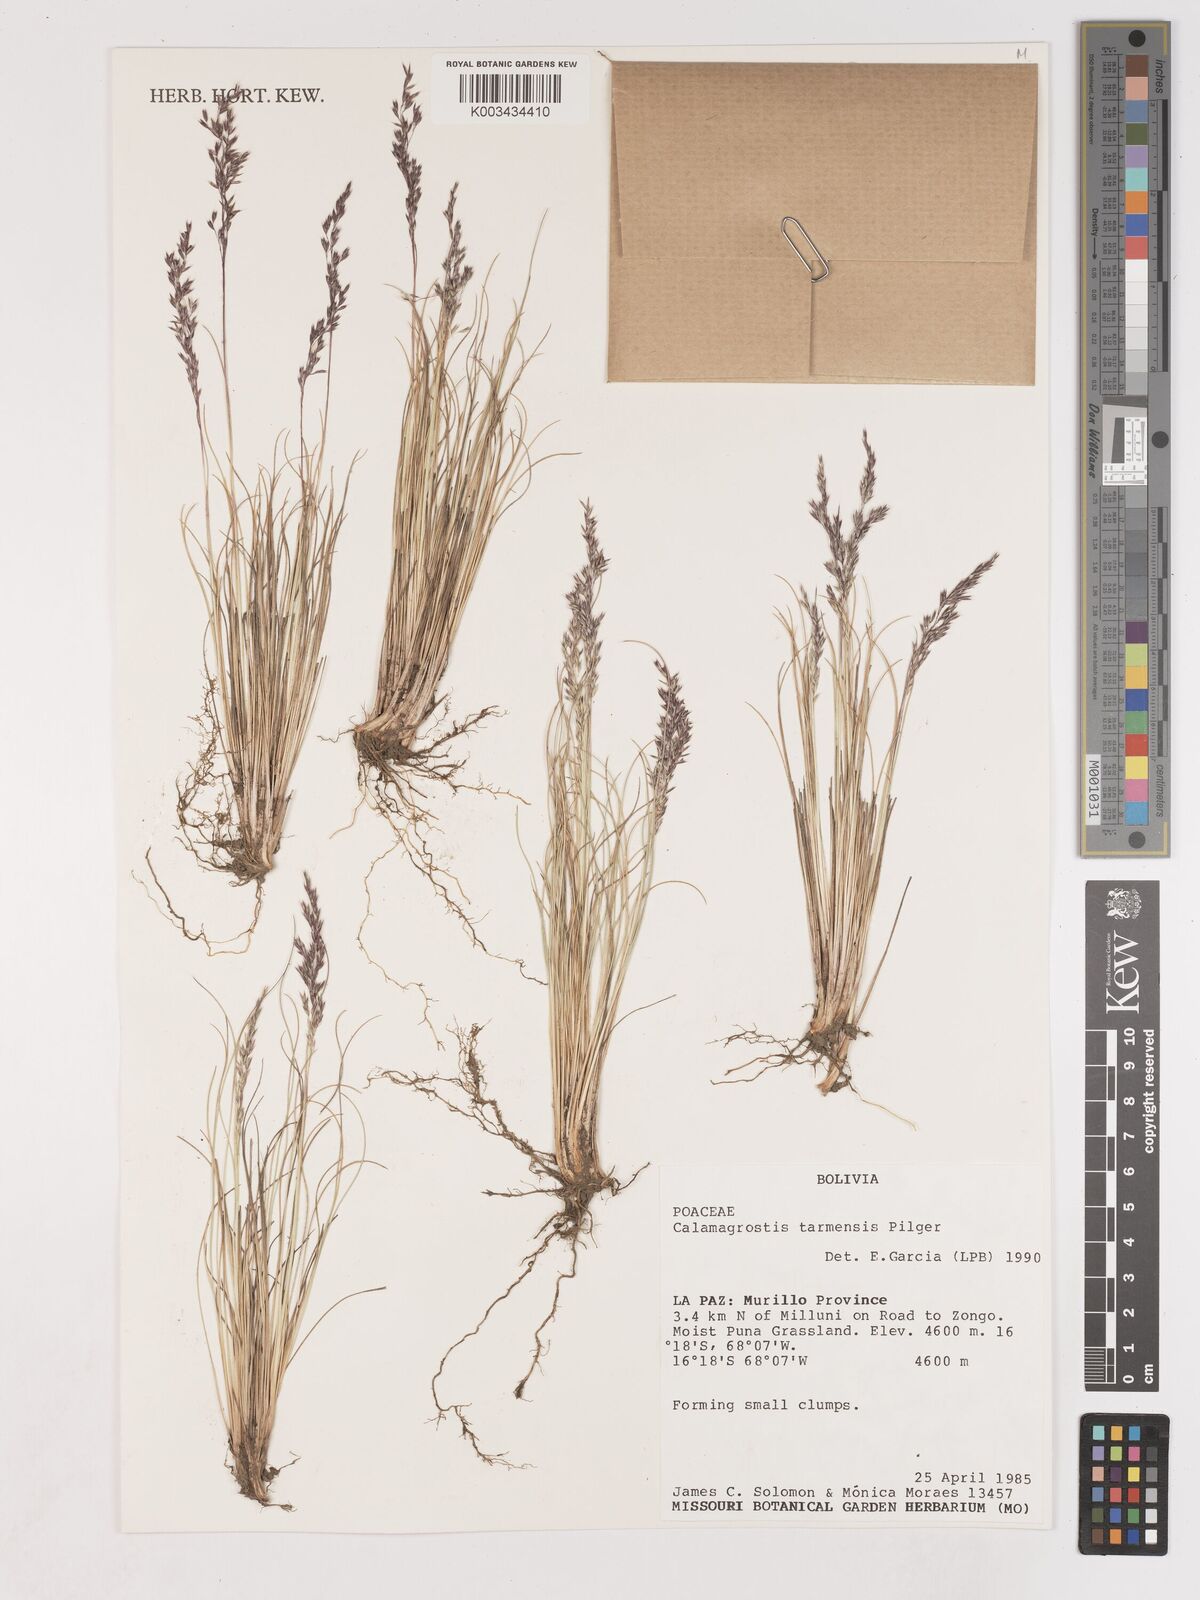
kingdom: Plantae
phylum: Tracheophyta
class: Liliopsida
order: Poales
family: Poaceae
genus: Cinnagrostis
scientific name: Cinnagrostis filifolia
